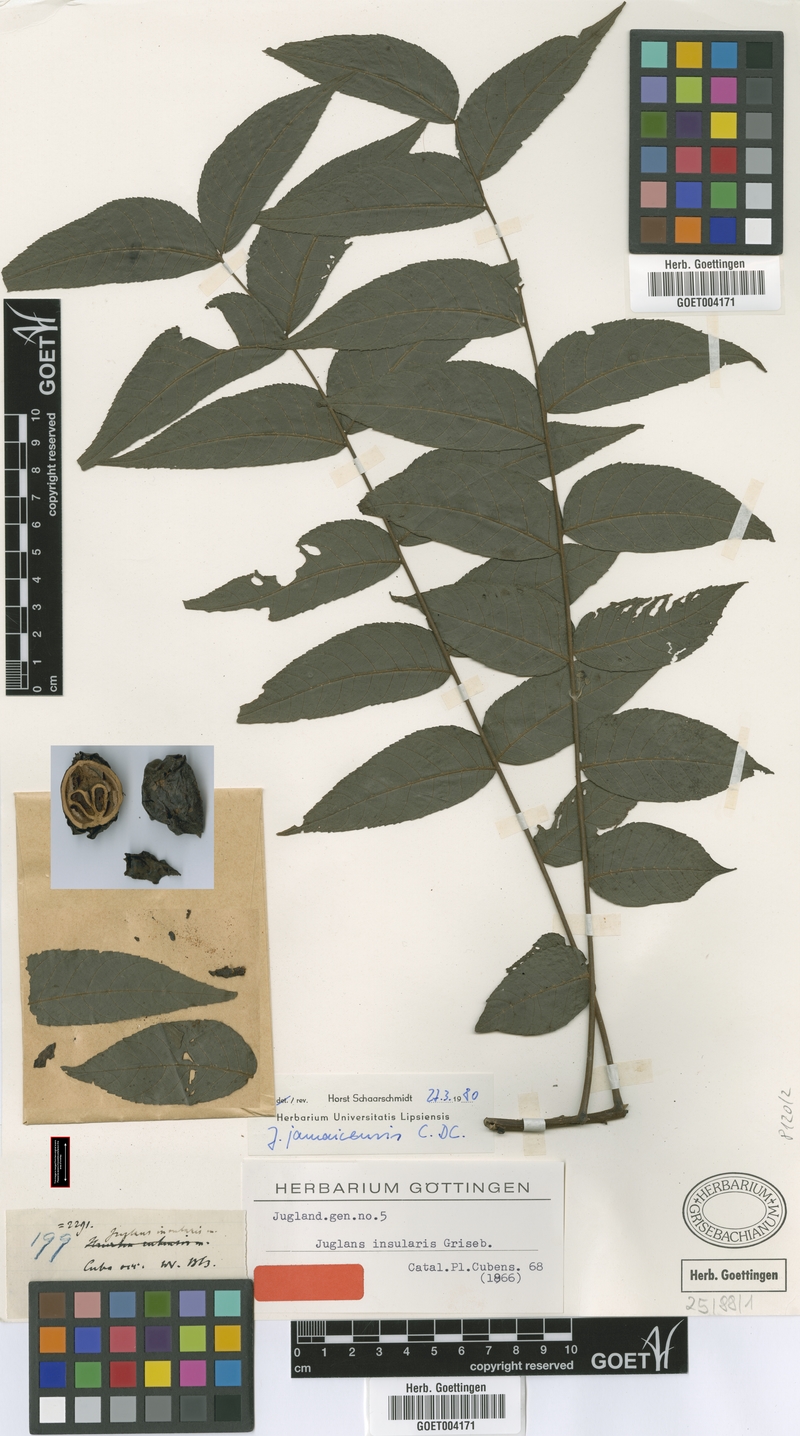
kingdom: Plantae
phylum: Tracheophyta
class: Magnoliopsida
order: Fagales
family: Juglandaceae
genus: Juglans
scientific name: Juglans jamaicensis
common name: West indian walnut
